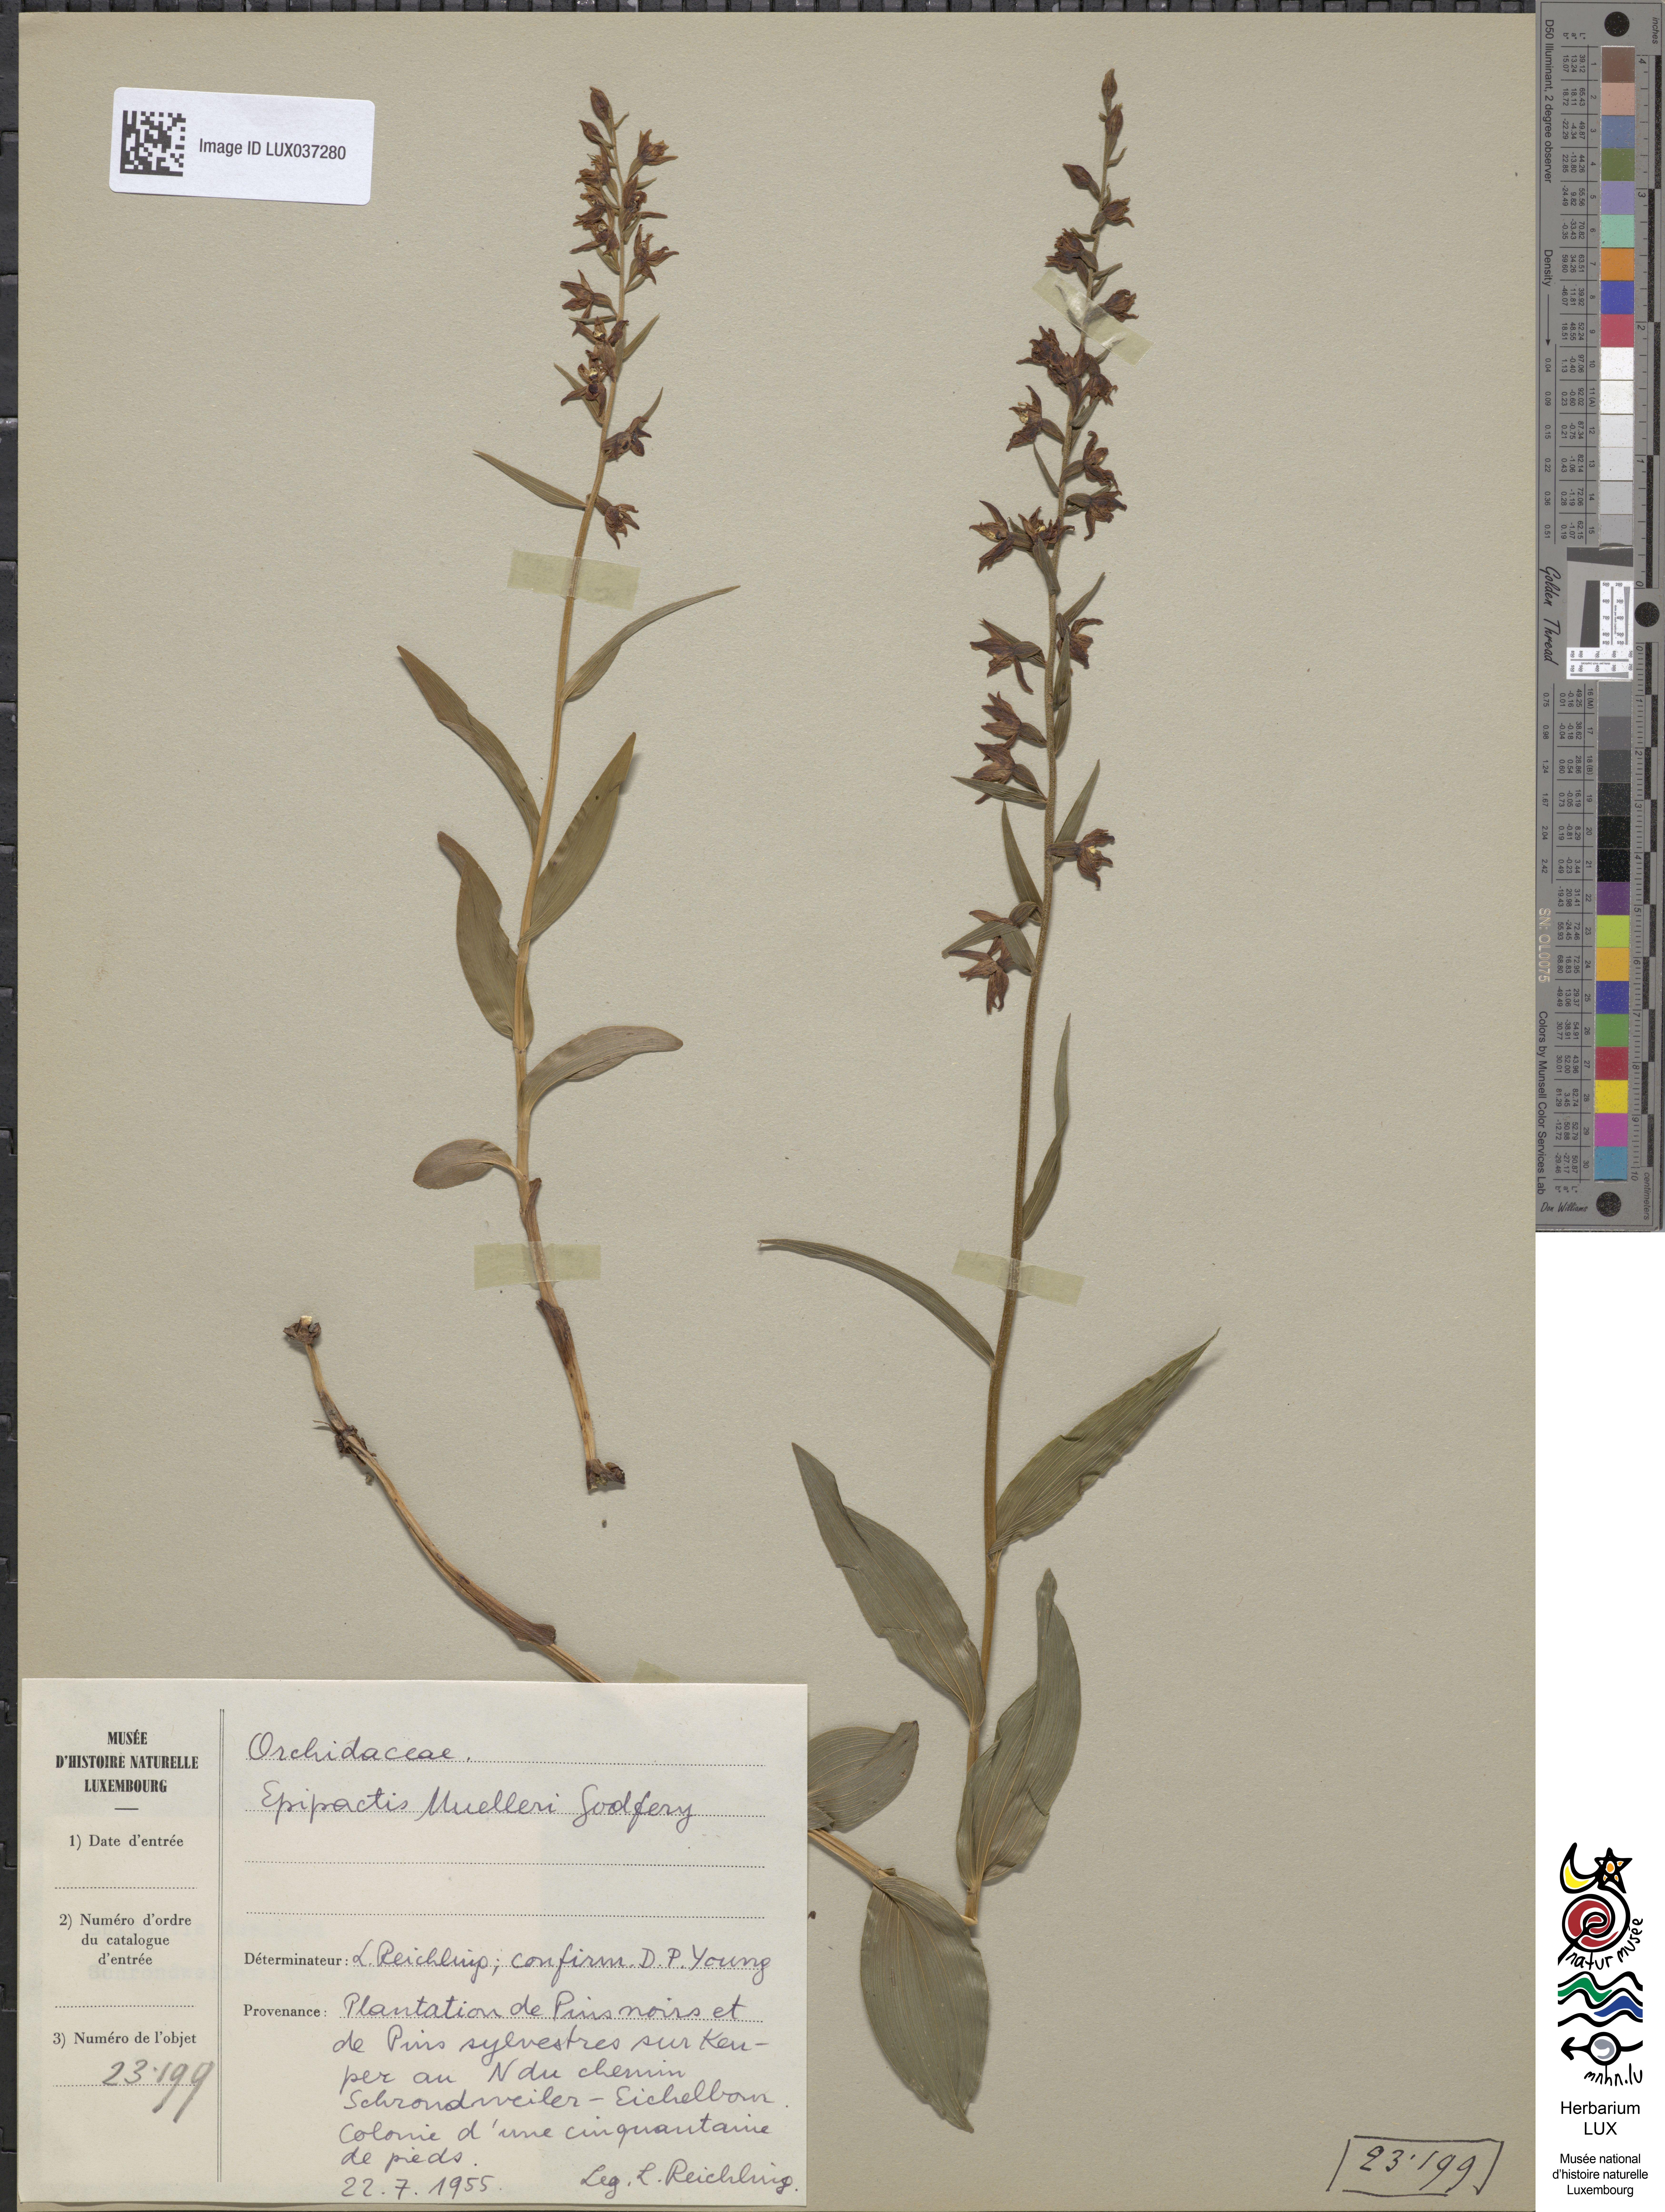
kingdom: Plantae
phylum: Tracheophyta
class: Liliopsida
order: Asparagales
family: Orchidaceae
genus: Epipactis
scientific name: Epipactis muelleri
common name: Mueller's epipactis
